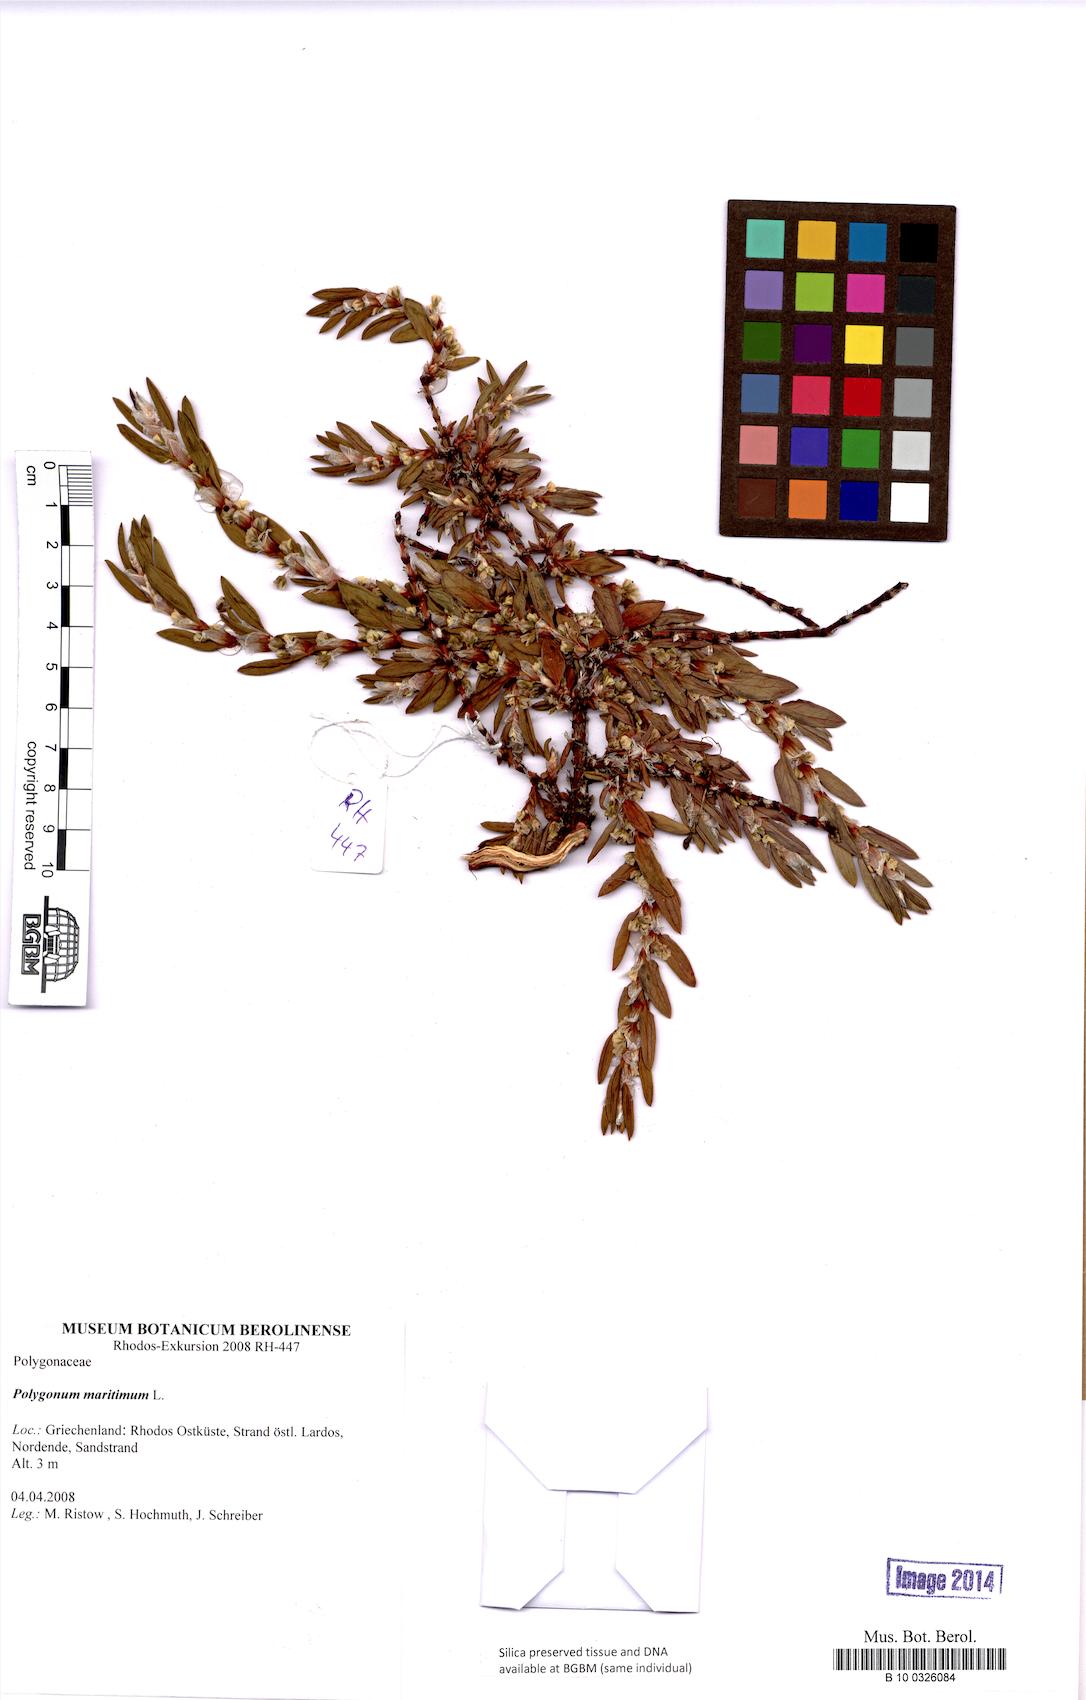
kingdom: Plantae
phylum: Tracheophyta
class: Magnoliopsida
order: Caryophyllales
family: Polygonaceae
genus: Polygonum
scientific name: Polygonum maritimum
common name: Sea knotgrass
